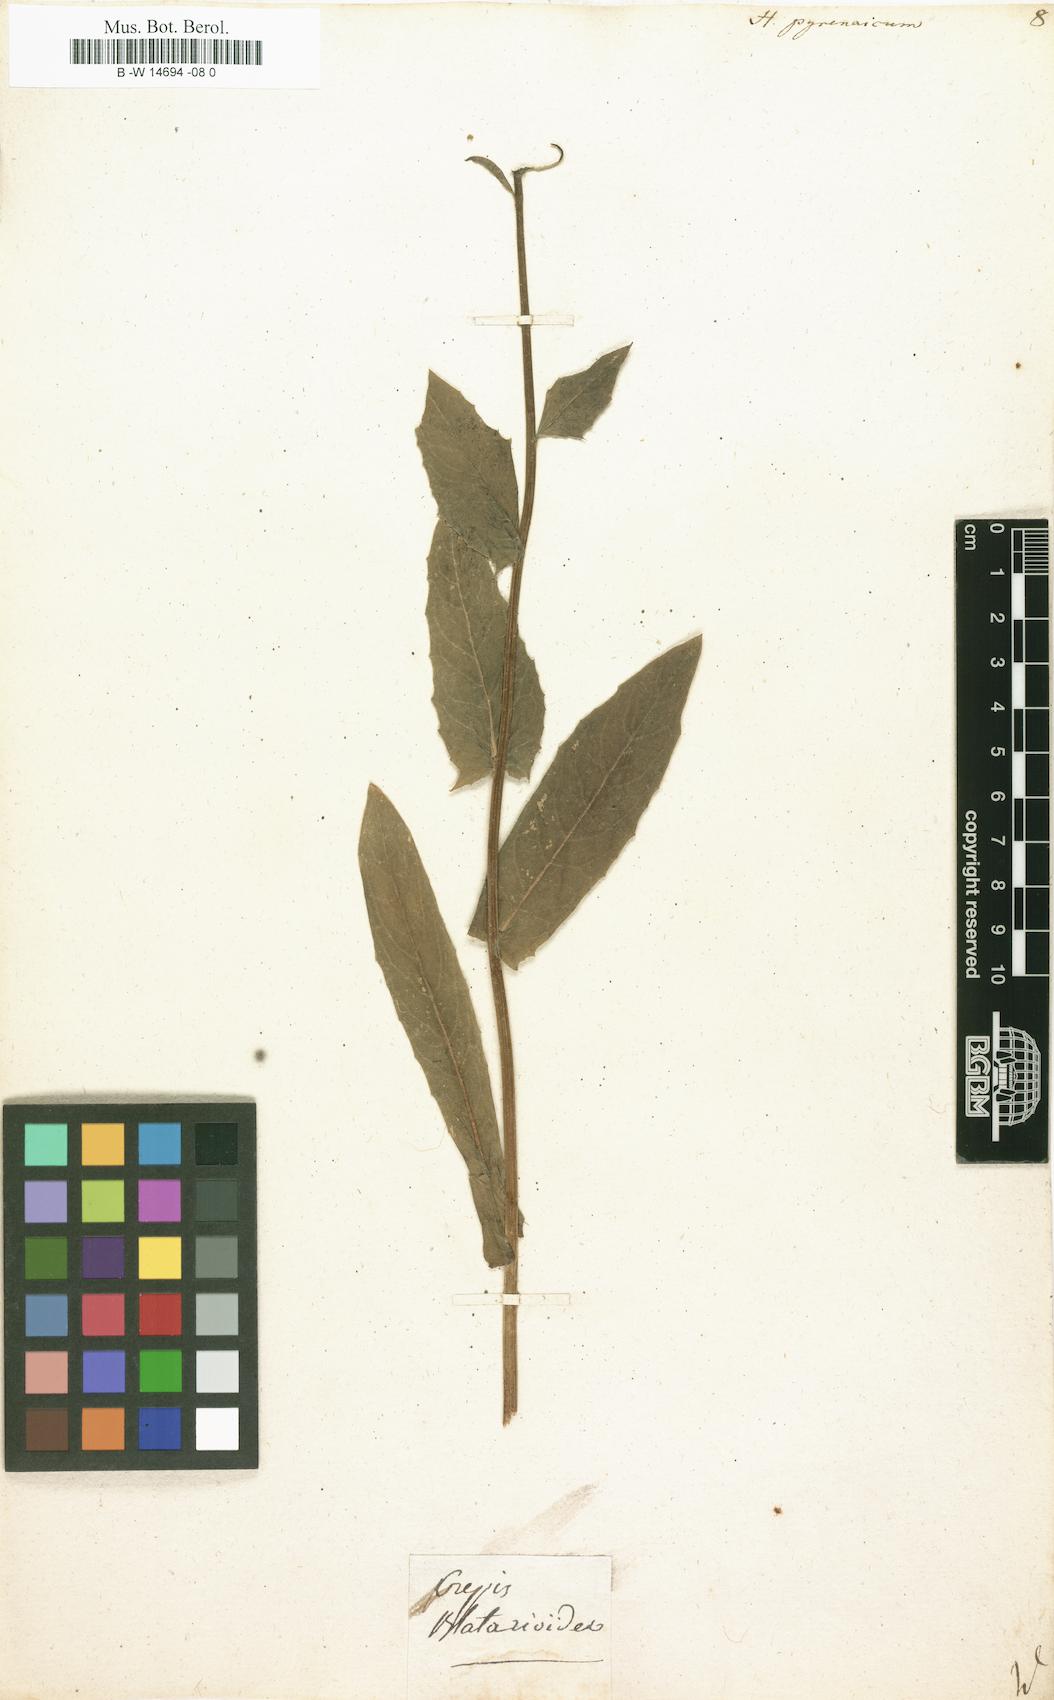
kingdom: Plantae
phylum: Tracheophyta
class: Magnoliopsida
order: Asterales
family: Asteraceae
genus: Hieracium
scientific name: Hieracium pyrenaicum
